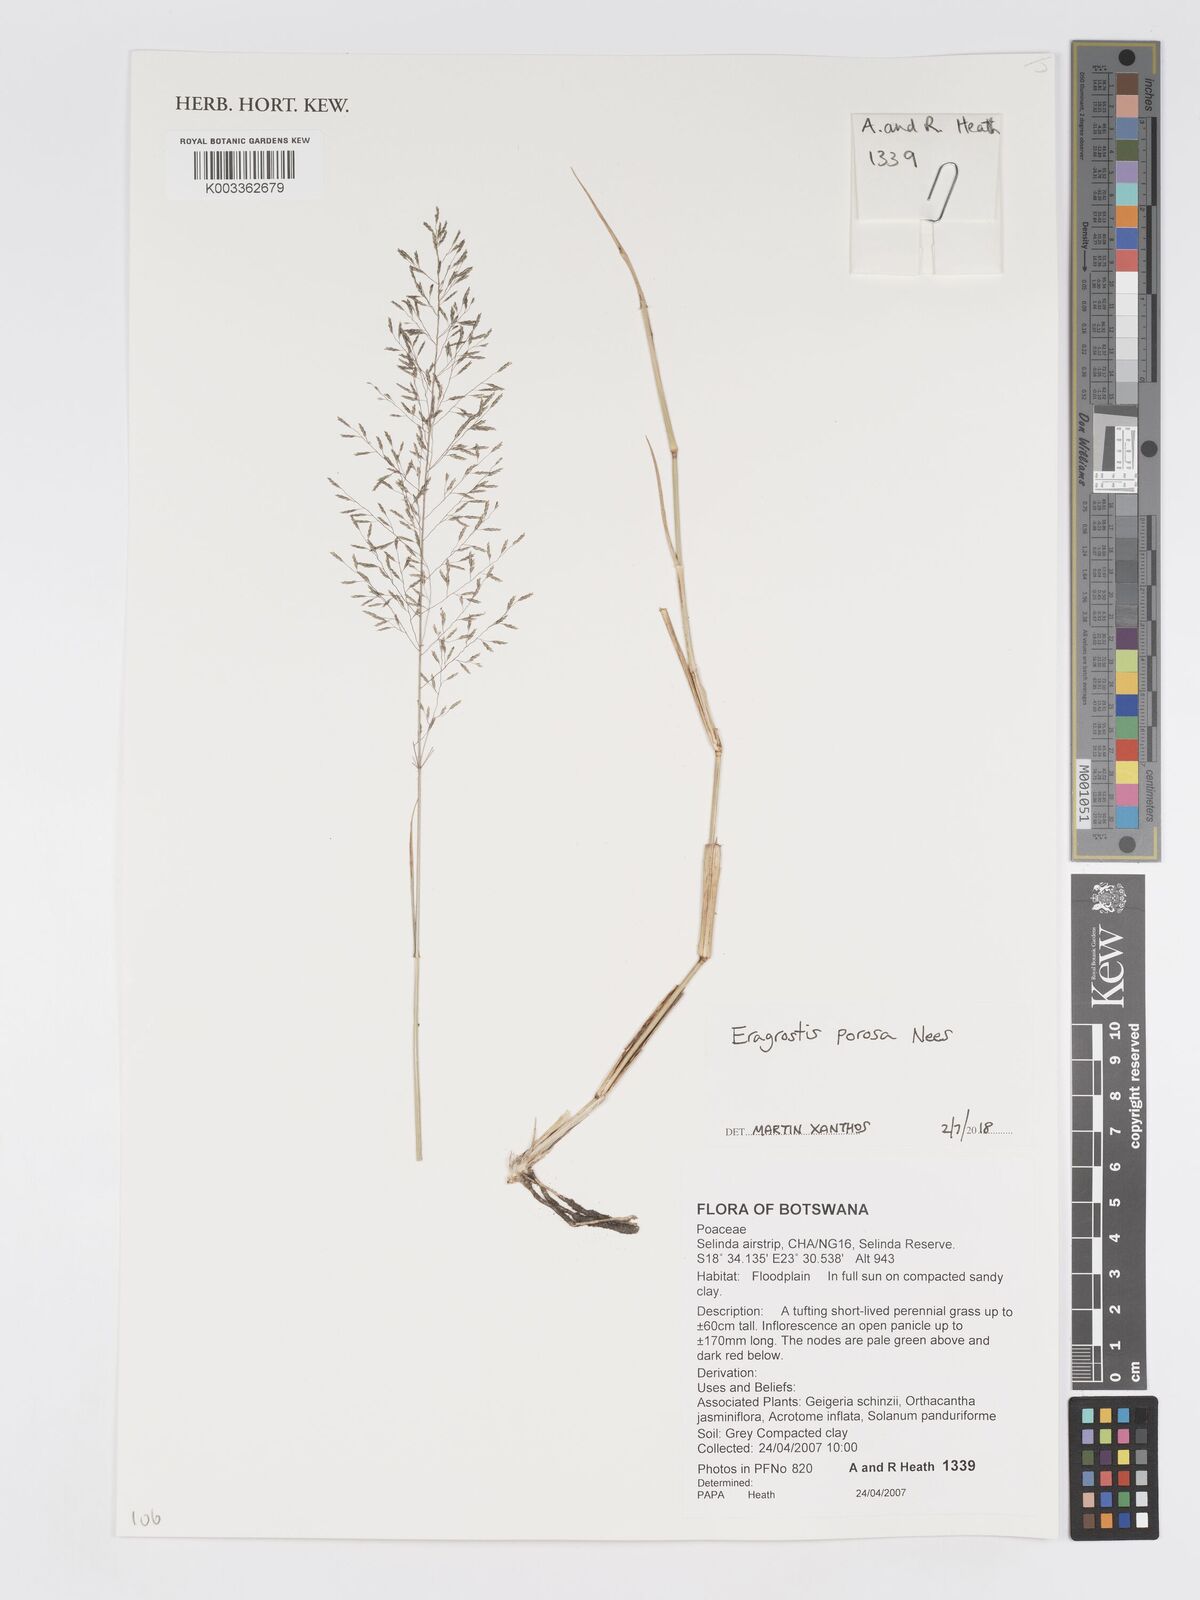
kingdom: Plantae
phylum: Tracheophyta
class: Liliopsida
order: Poales
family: Poaceae
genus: Eragrostis
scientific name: Eragrostis porosa
